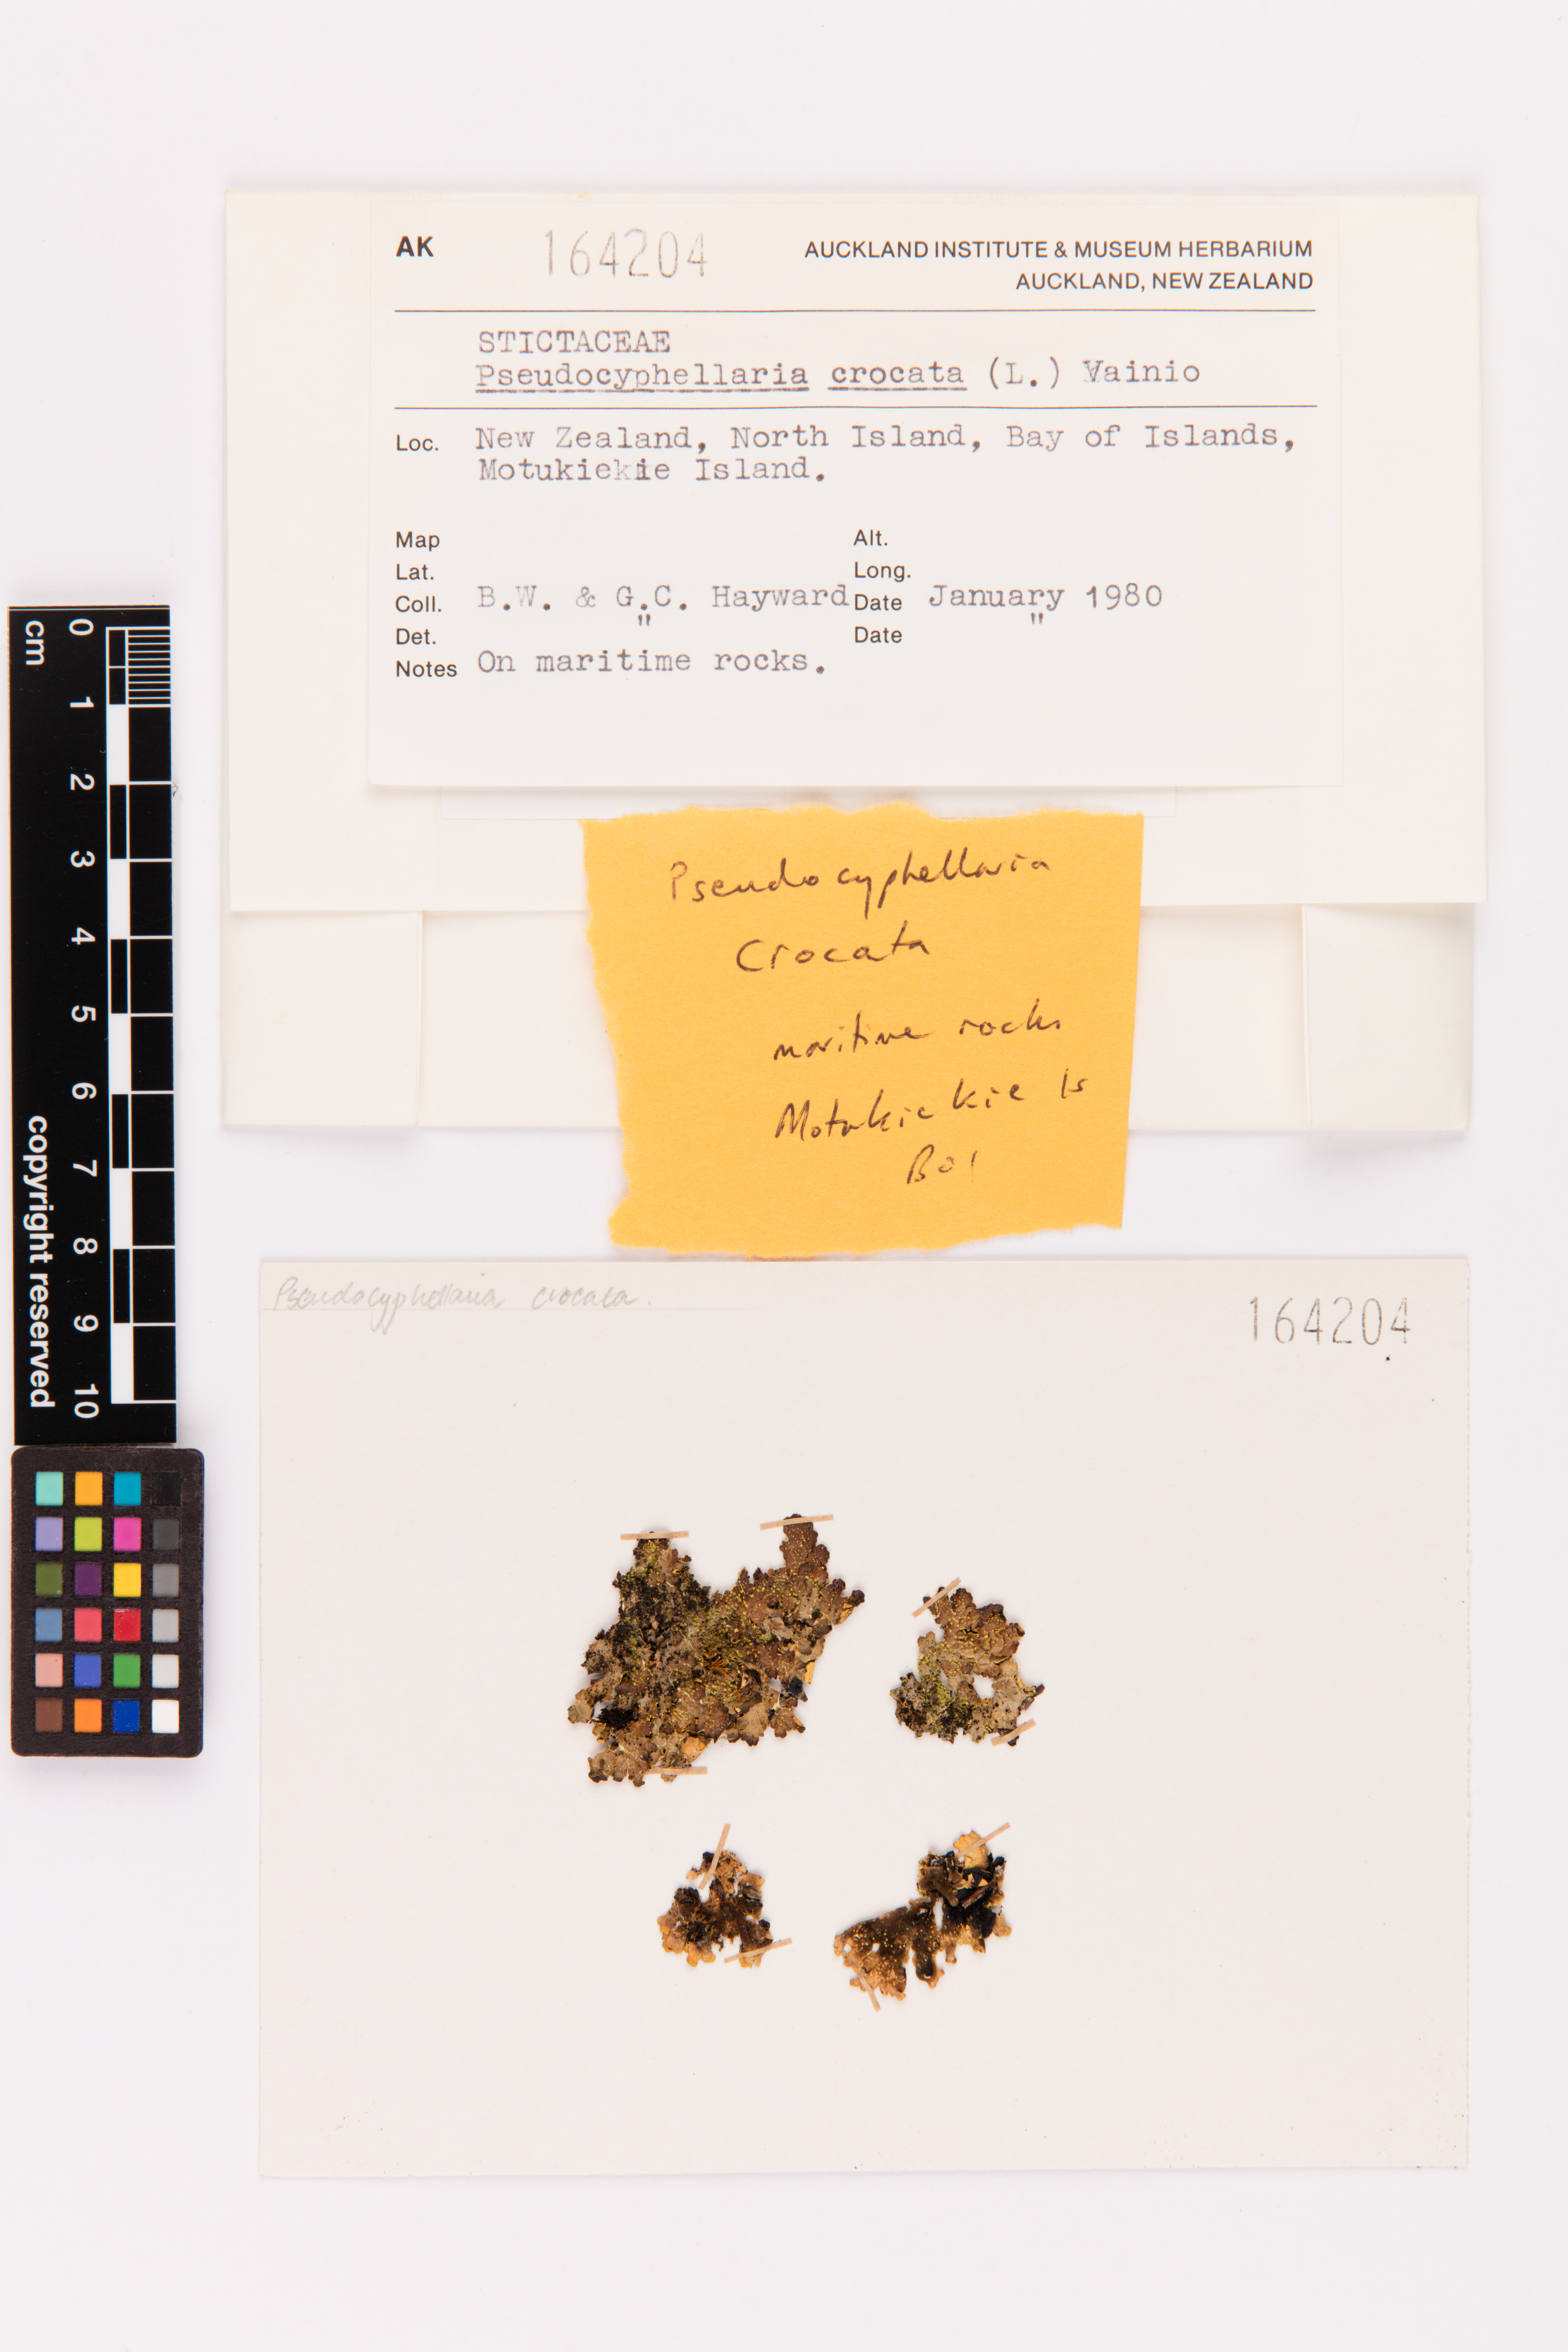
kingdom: Fungi
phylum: Ascomycota
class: Lecanoromycetes
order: Peltigerales
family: Lobariaceae
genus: Pseudocyphellaria
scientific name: Pseudocyphellaria crocata
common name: Golden specklebelly
